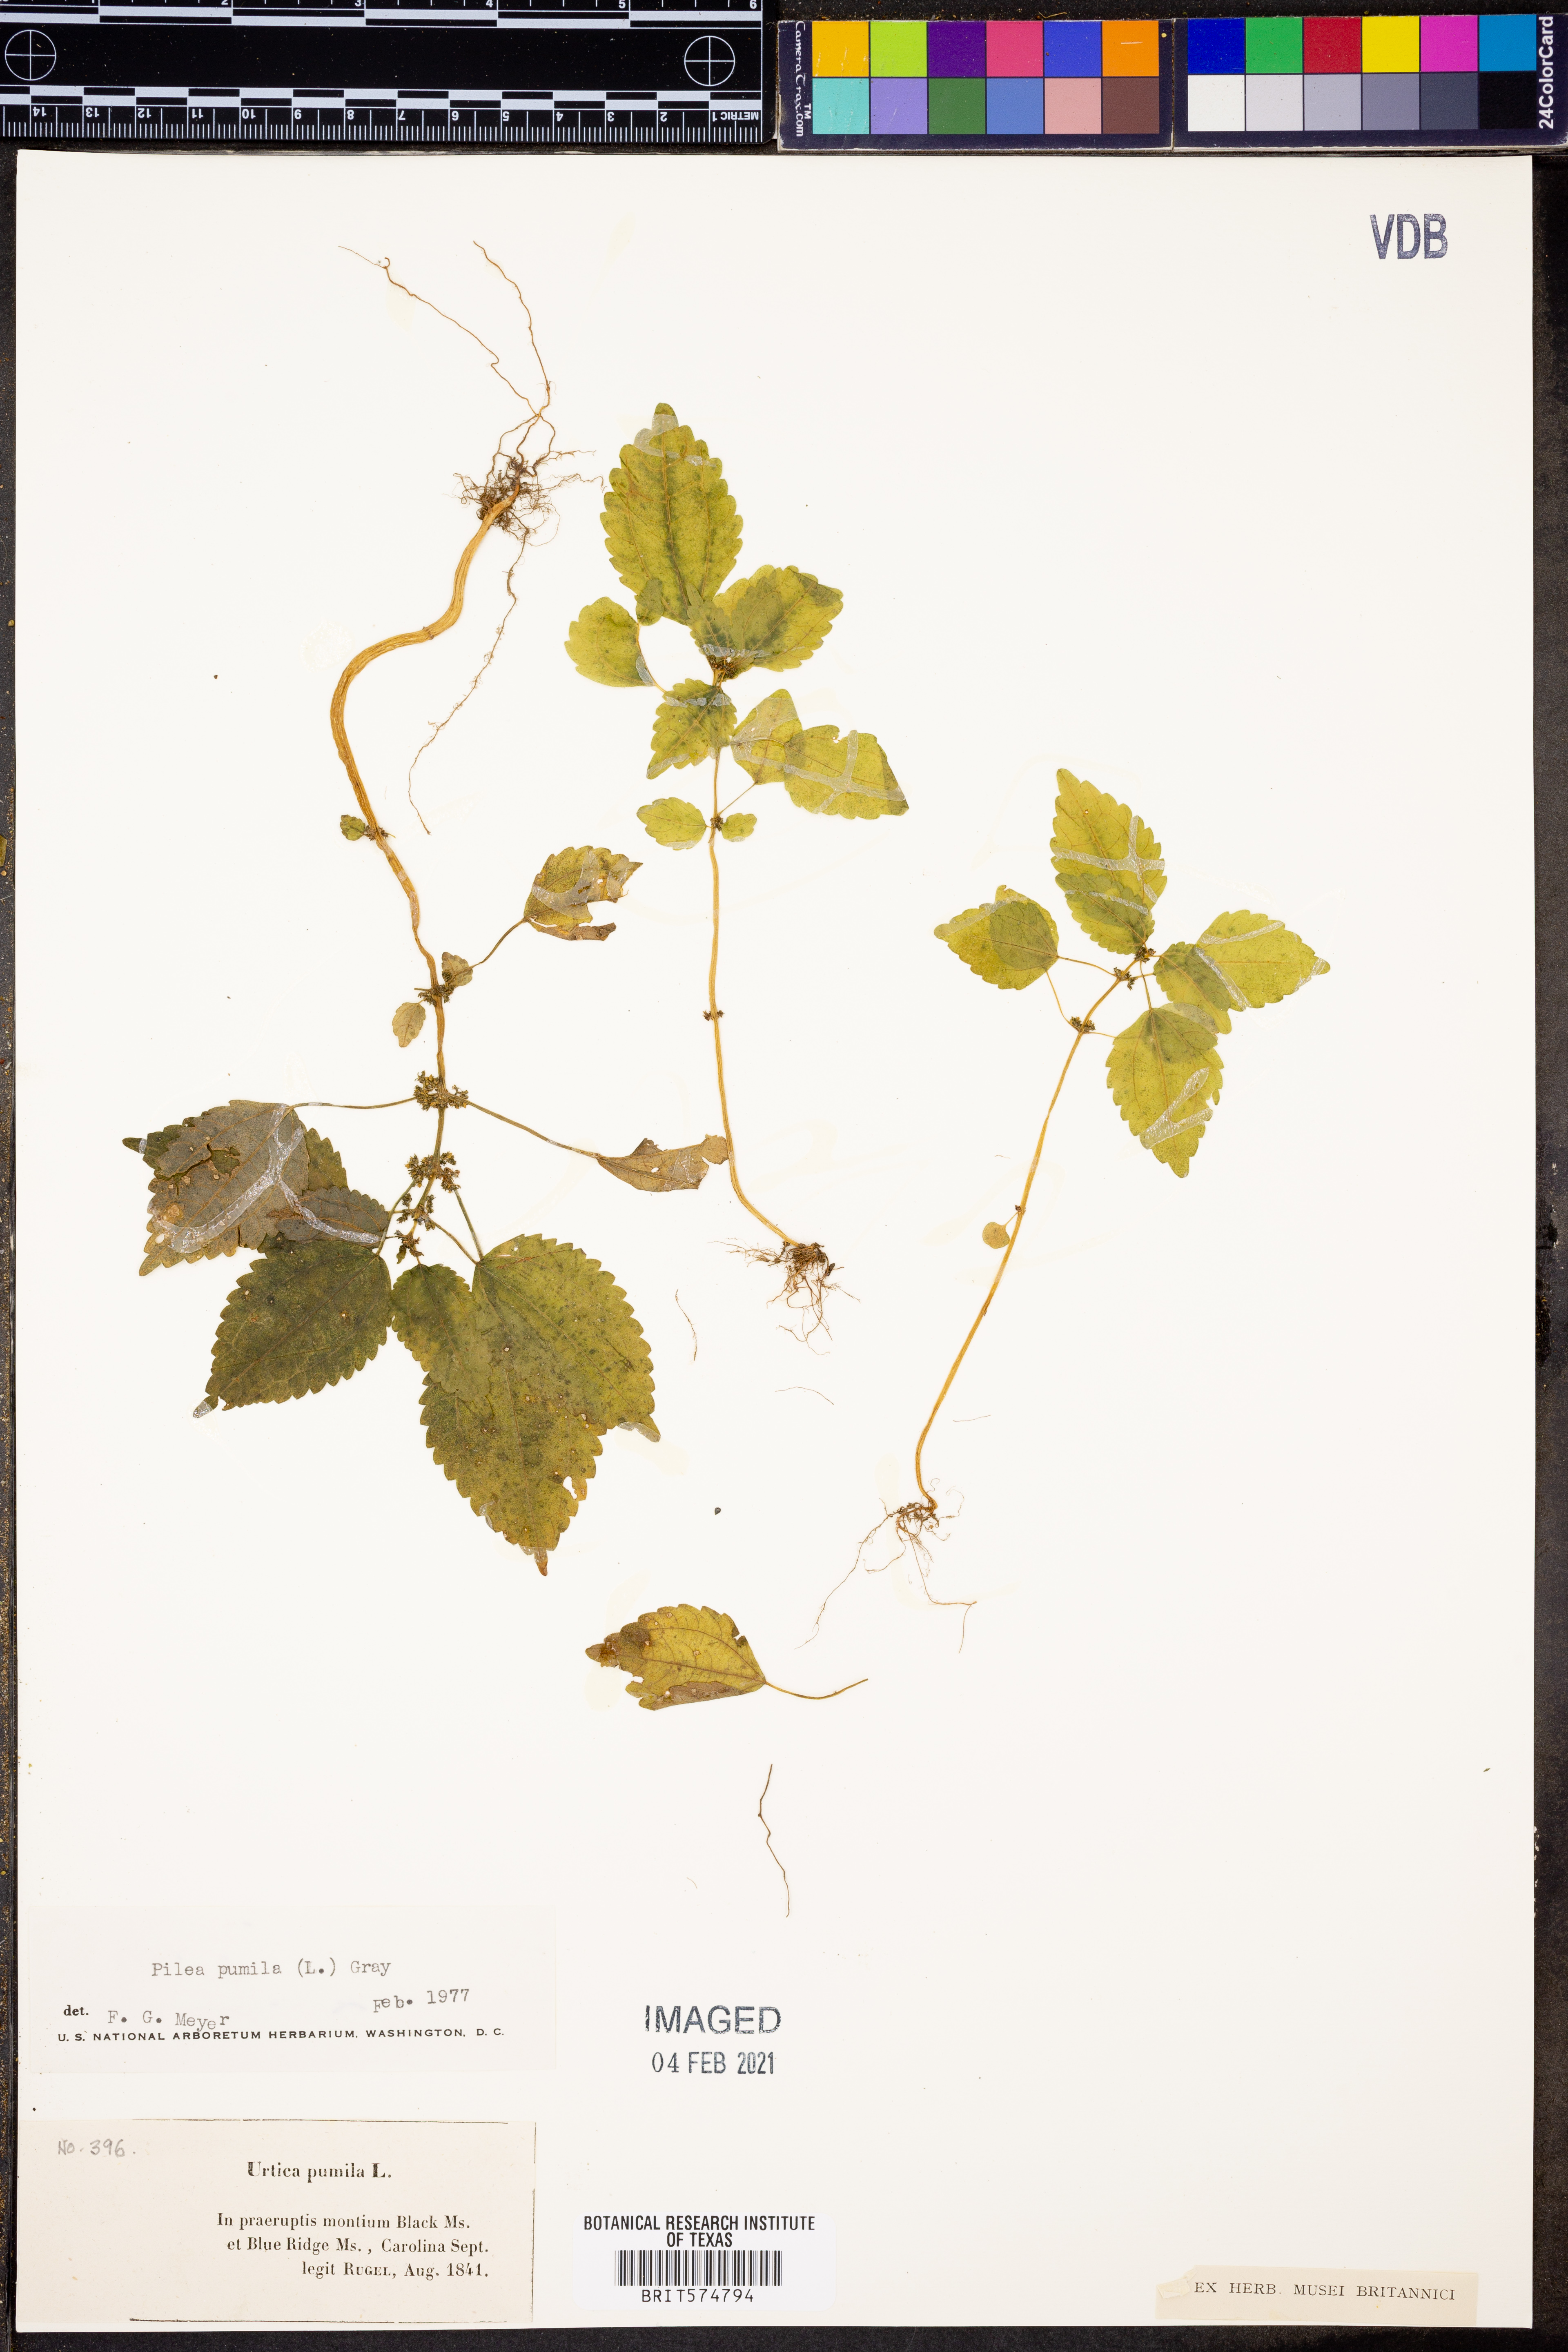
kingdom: Plantae
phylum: Tracheophyta
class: Magnoliopsida
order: Rosales
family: Urticaceae
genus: Pilea
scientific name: Pilea pumila
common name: Clearweed
